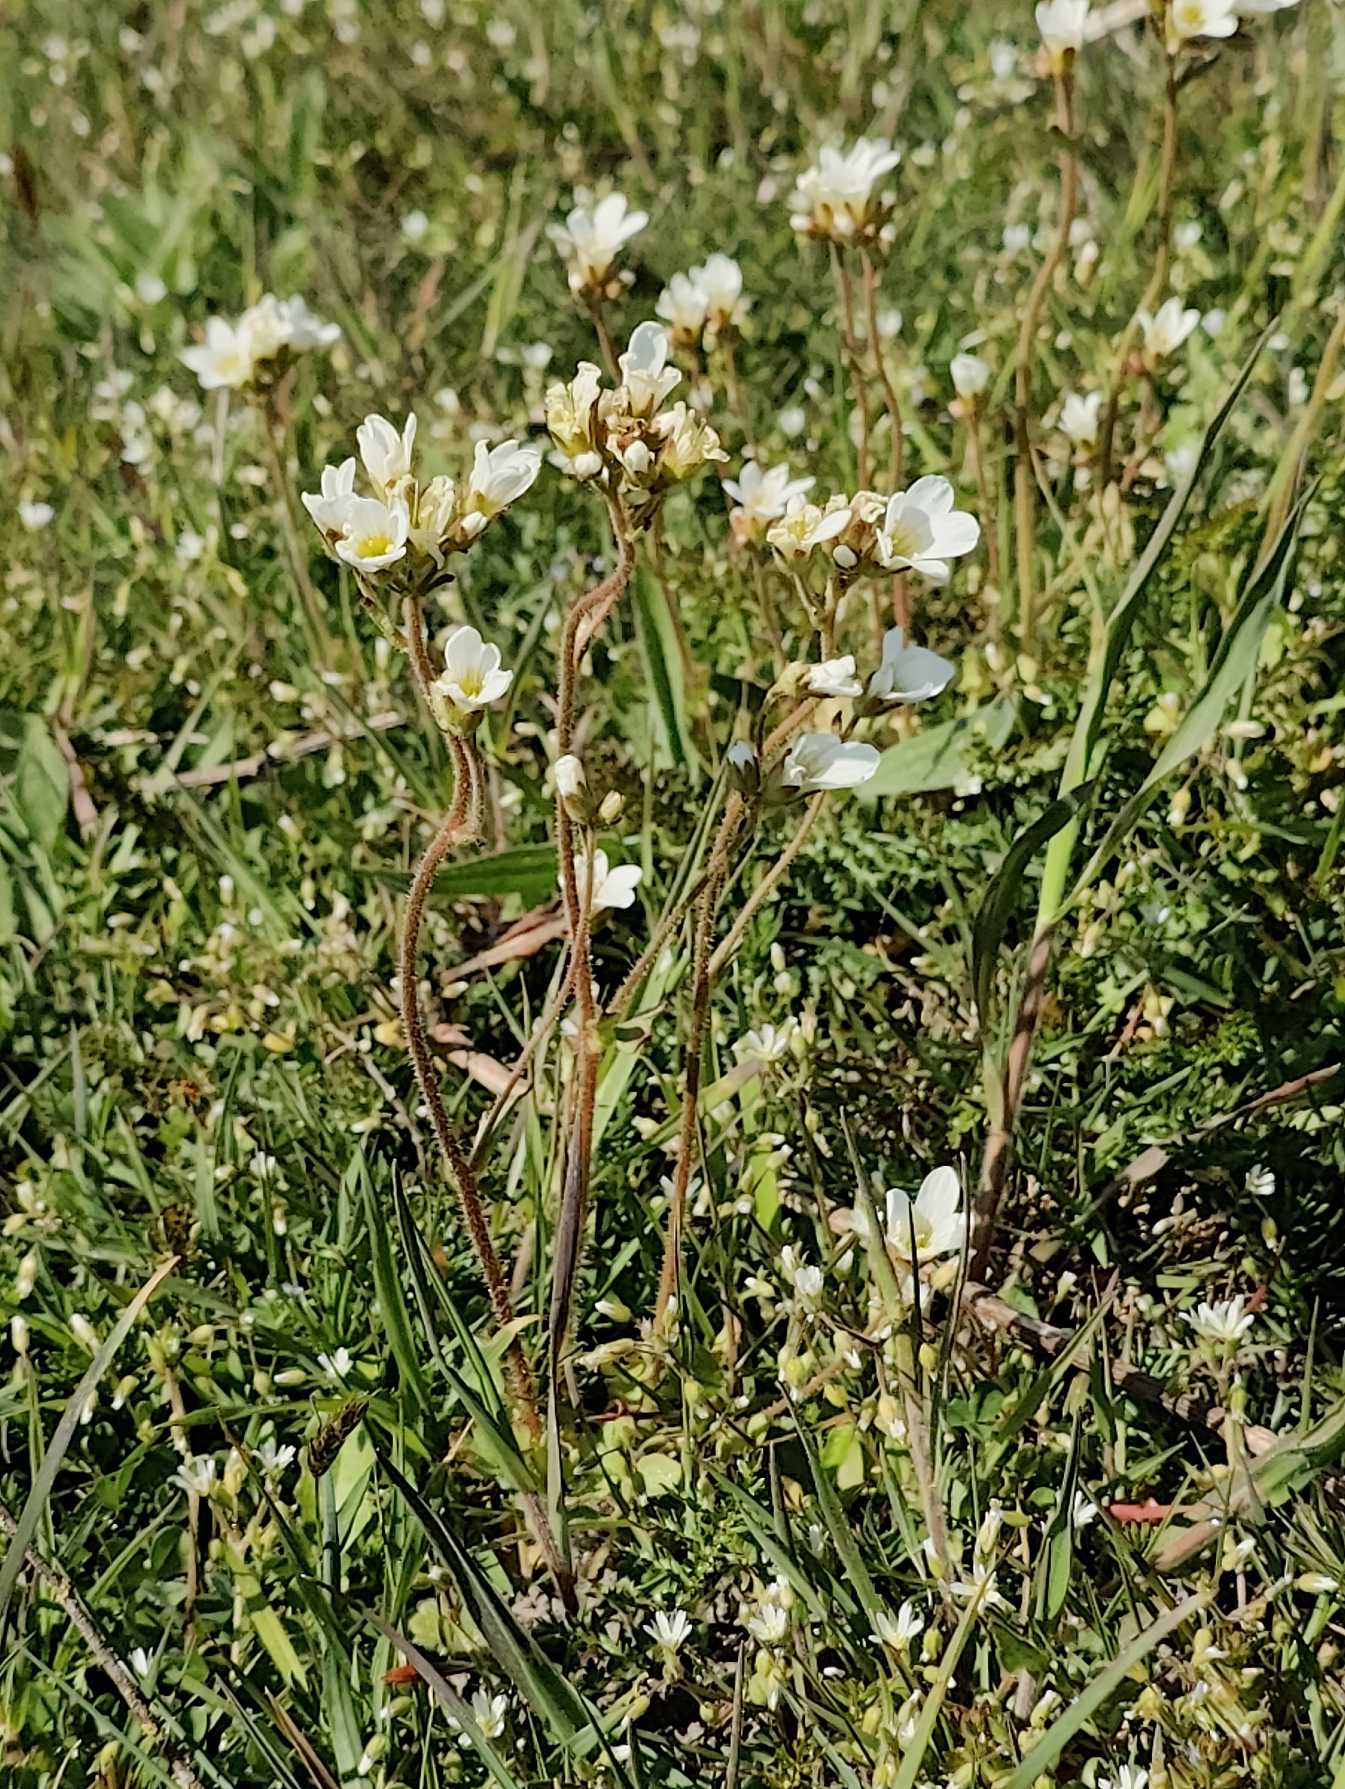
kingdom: Plantae
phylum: Tracheophyta
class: Magnoliopsida
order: Saxifragales
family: Saxifragaceae
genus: Saxifraga
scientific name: Saxifraga granulata
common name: Kornet stenbræk
